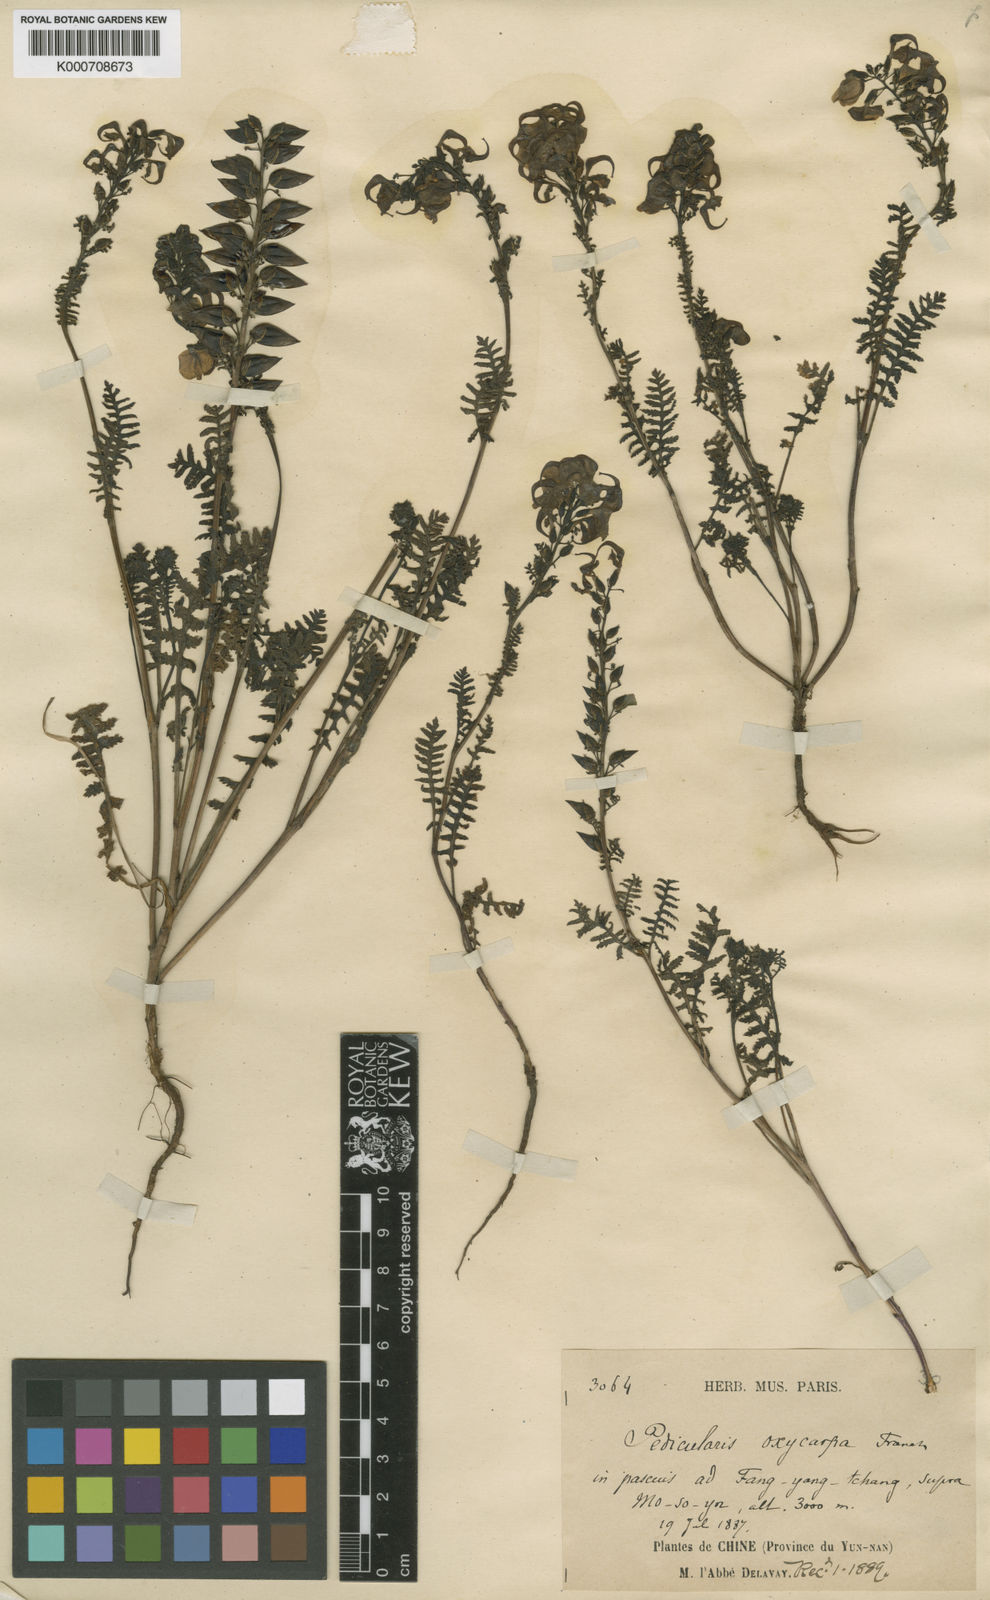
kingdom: Plantae
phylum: Tracheophyta
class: Magnoliopsida
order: Lamiales
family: Orobanchaceae
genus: Pedicularis
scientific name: Pedicularis oxycarpa
